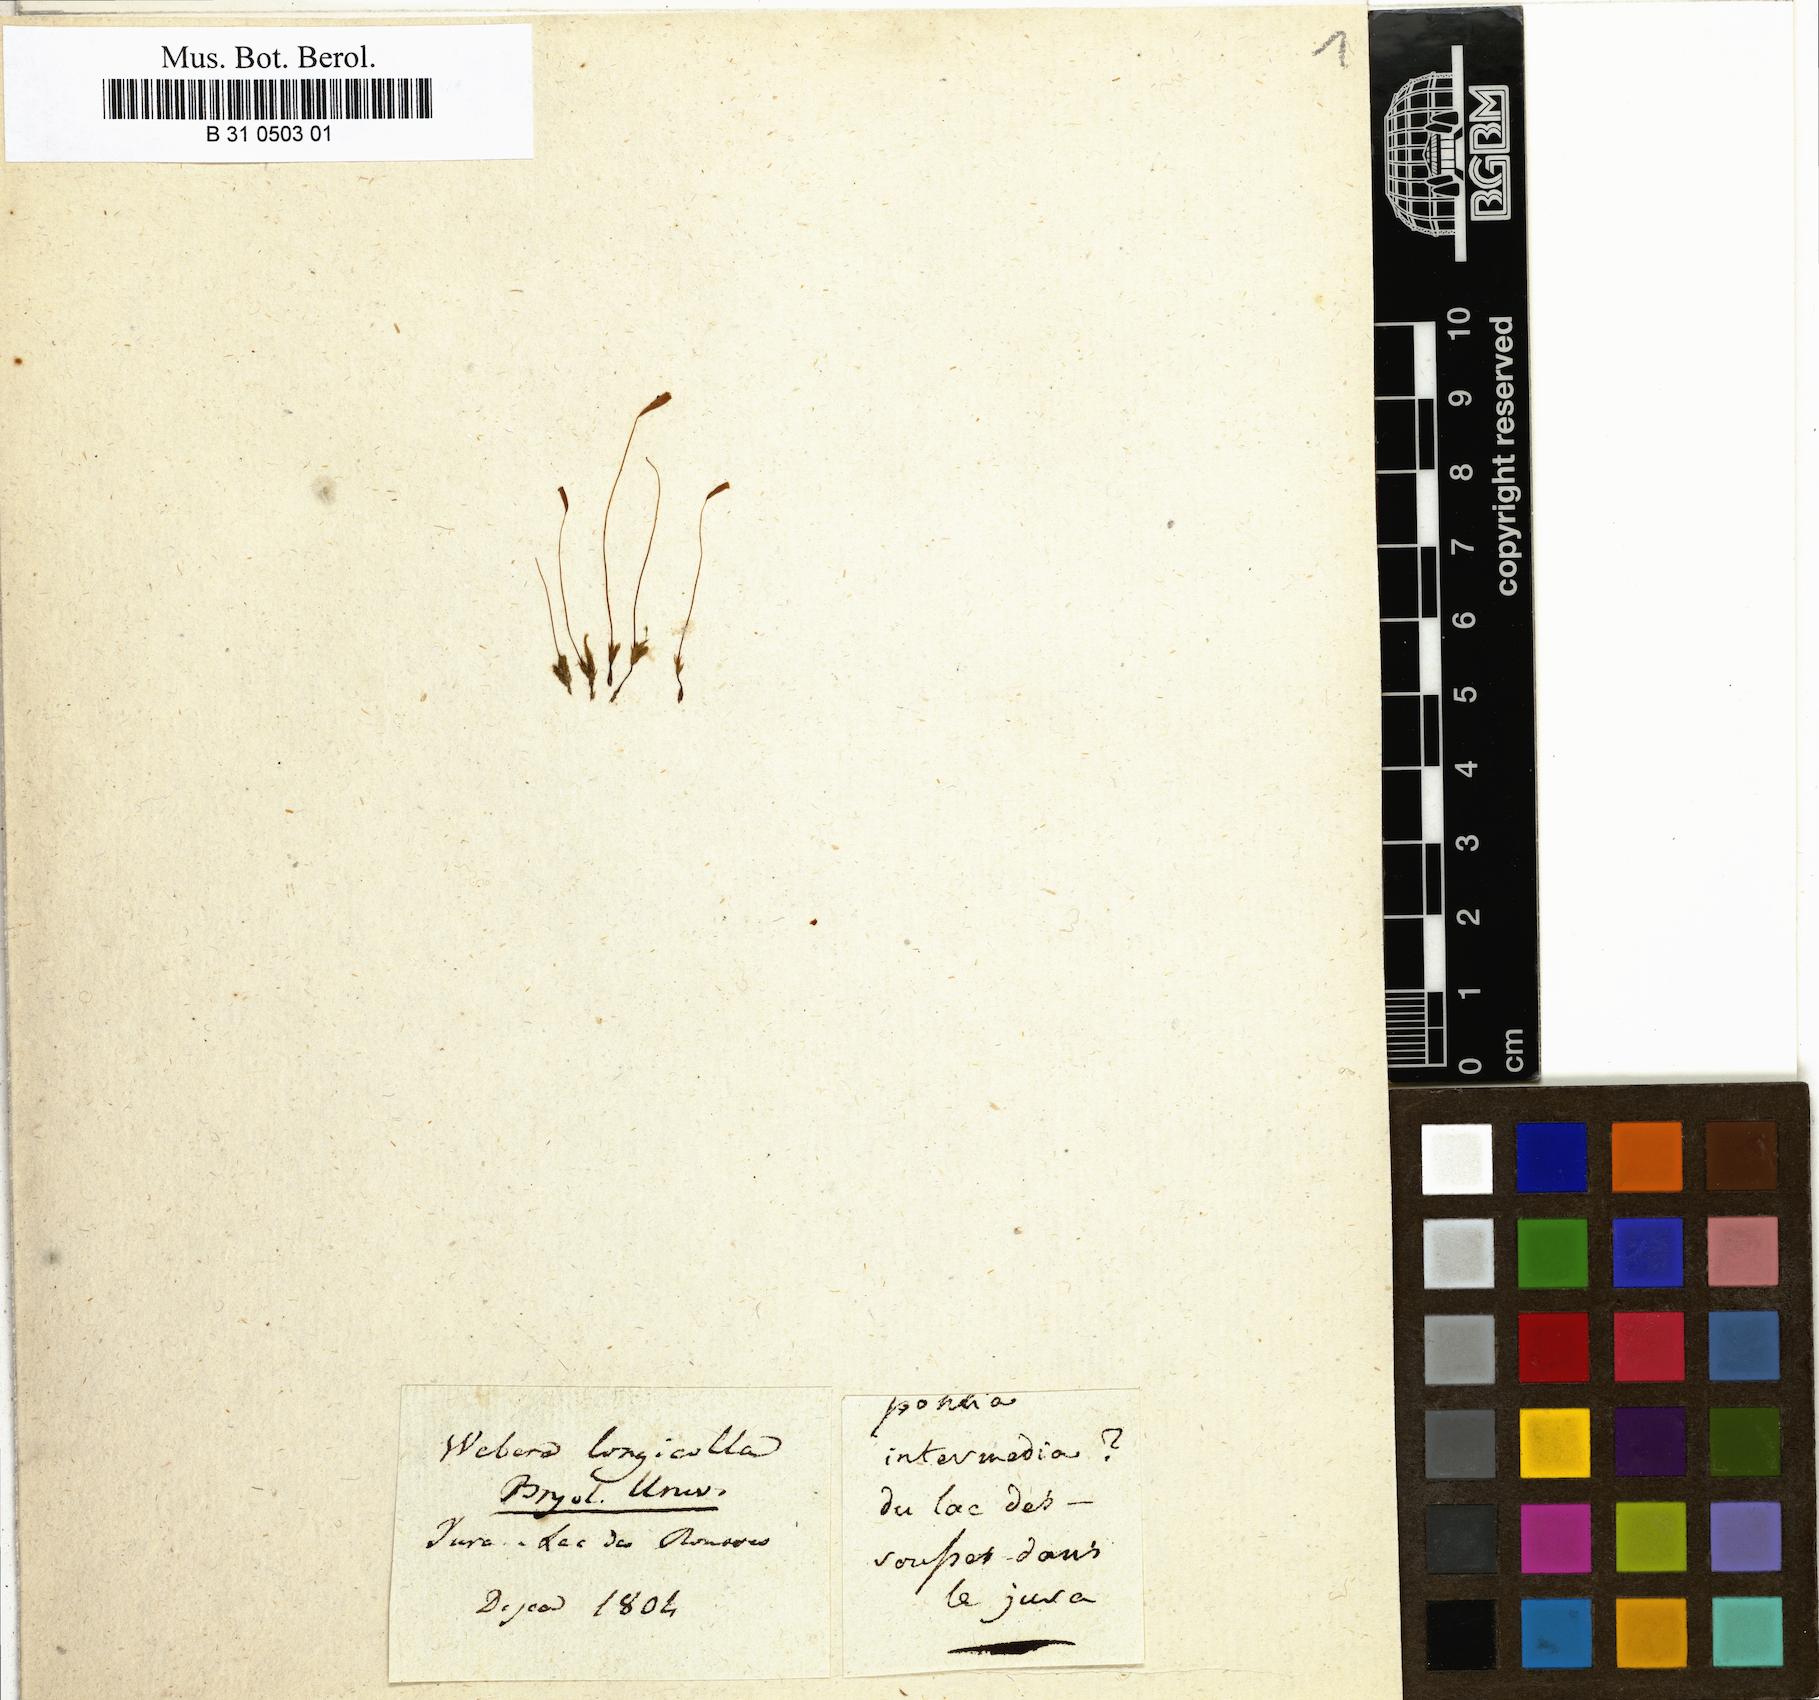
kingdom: Plantae
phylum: Bryophyta
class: Bryopsida
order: Bryales
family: Mniaceae
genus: Pohlia
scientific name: Pohlia longicolla
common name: Long-necked nodding moss
